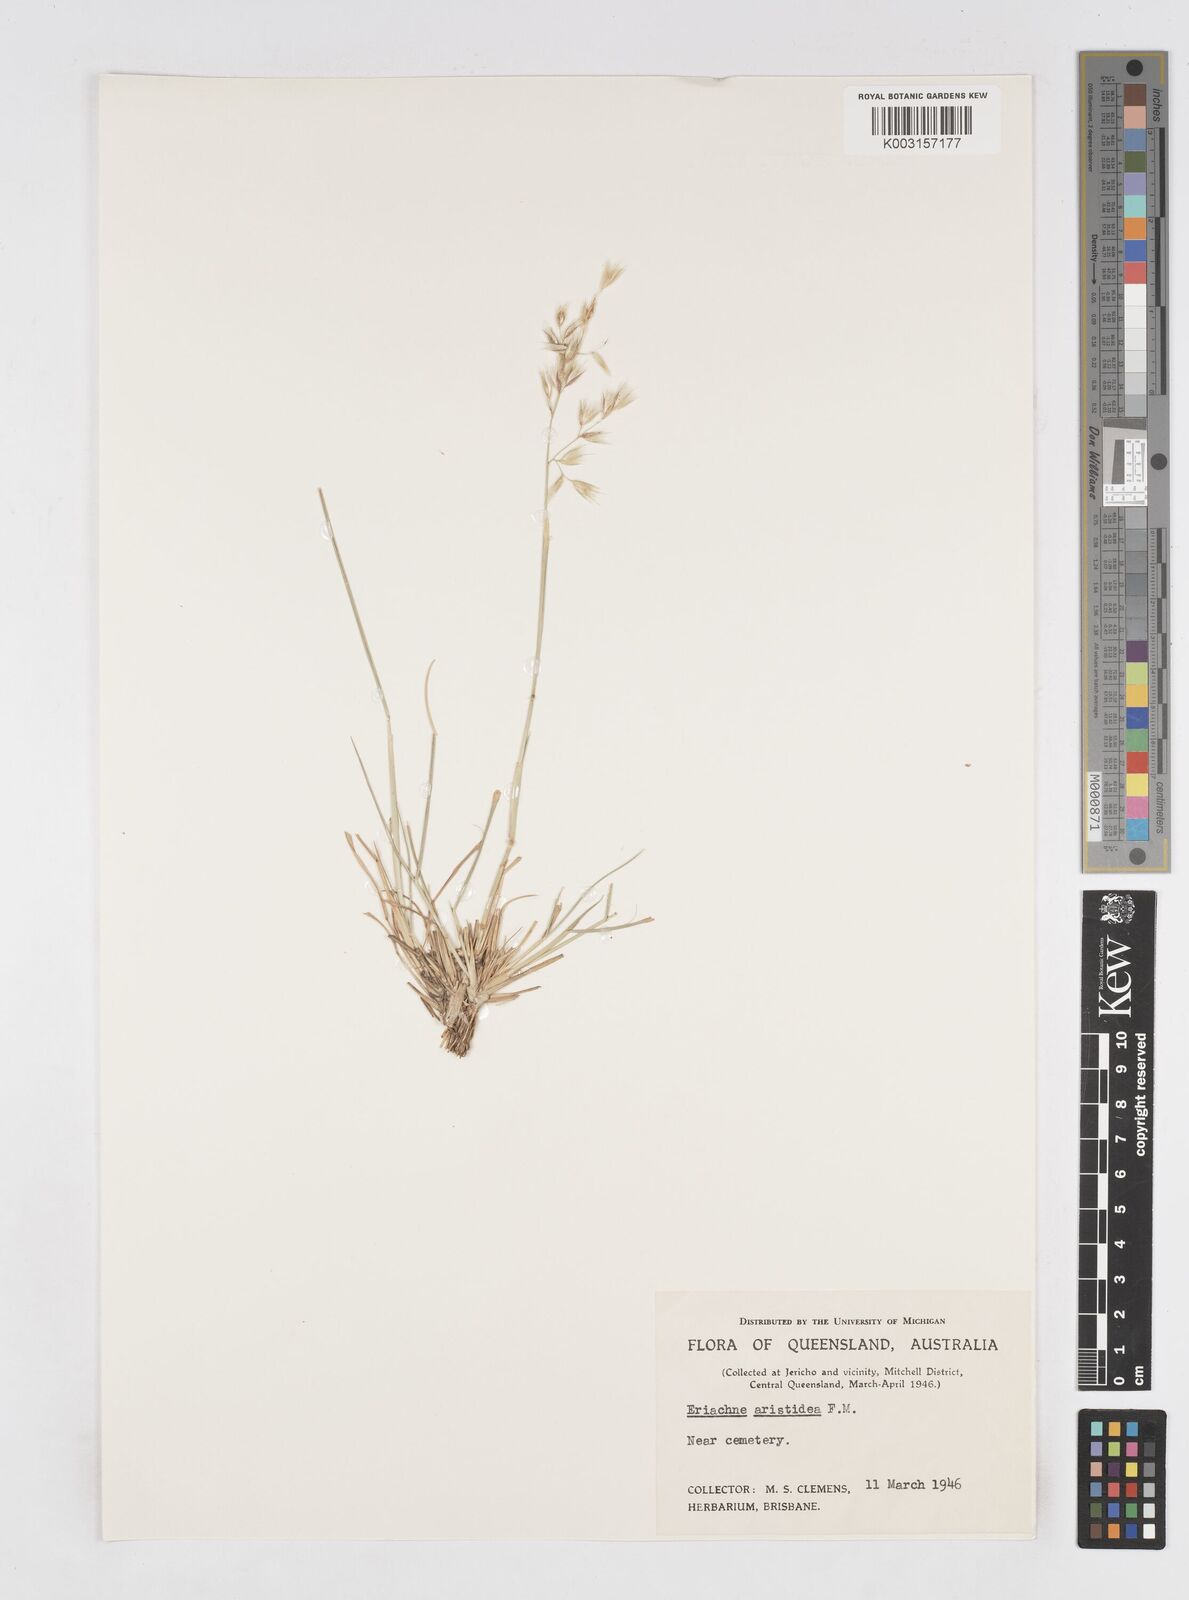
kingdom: Plantae
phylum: Tracheophyta
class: Liliopsida
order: Poales
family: Poaceae
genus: Eriachne
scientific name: Eriachne aristidea
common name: Three-awn wanderrie grass
